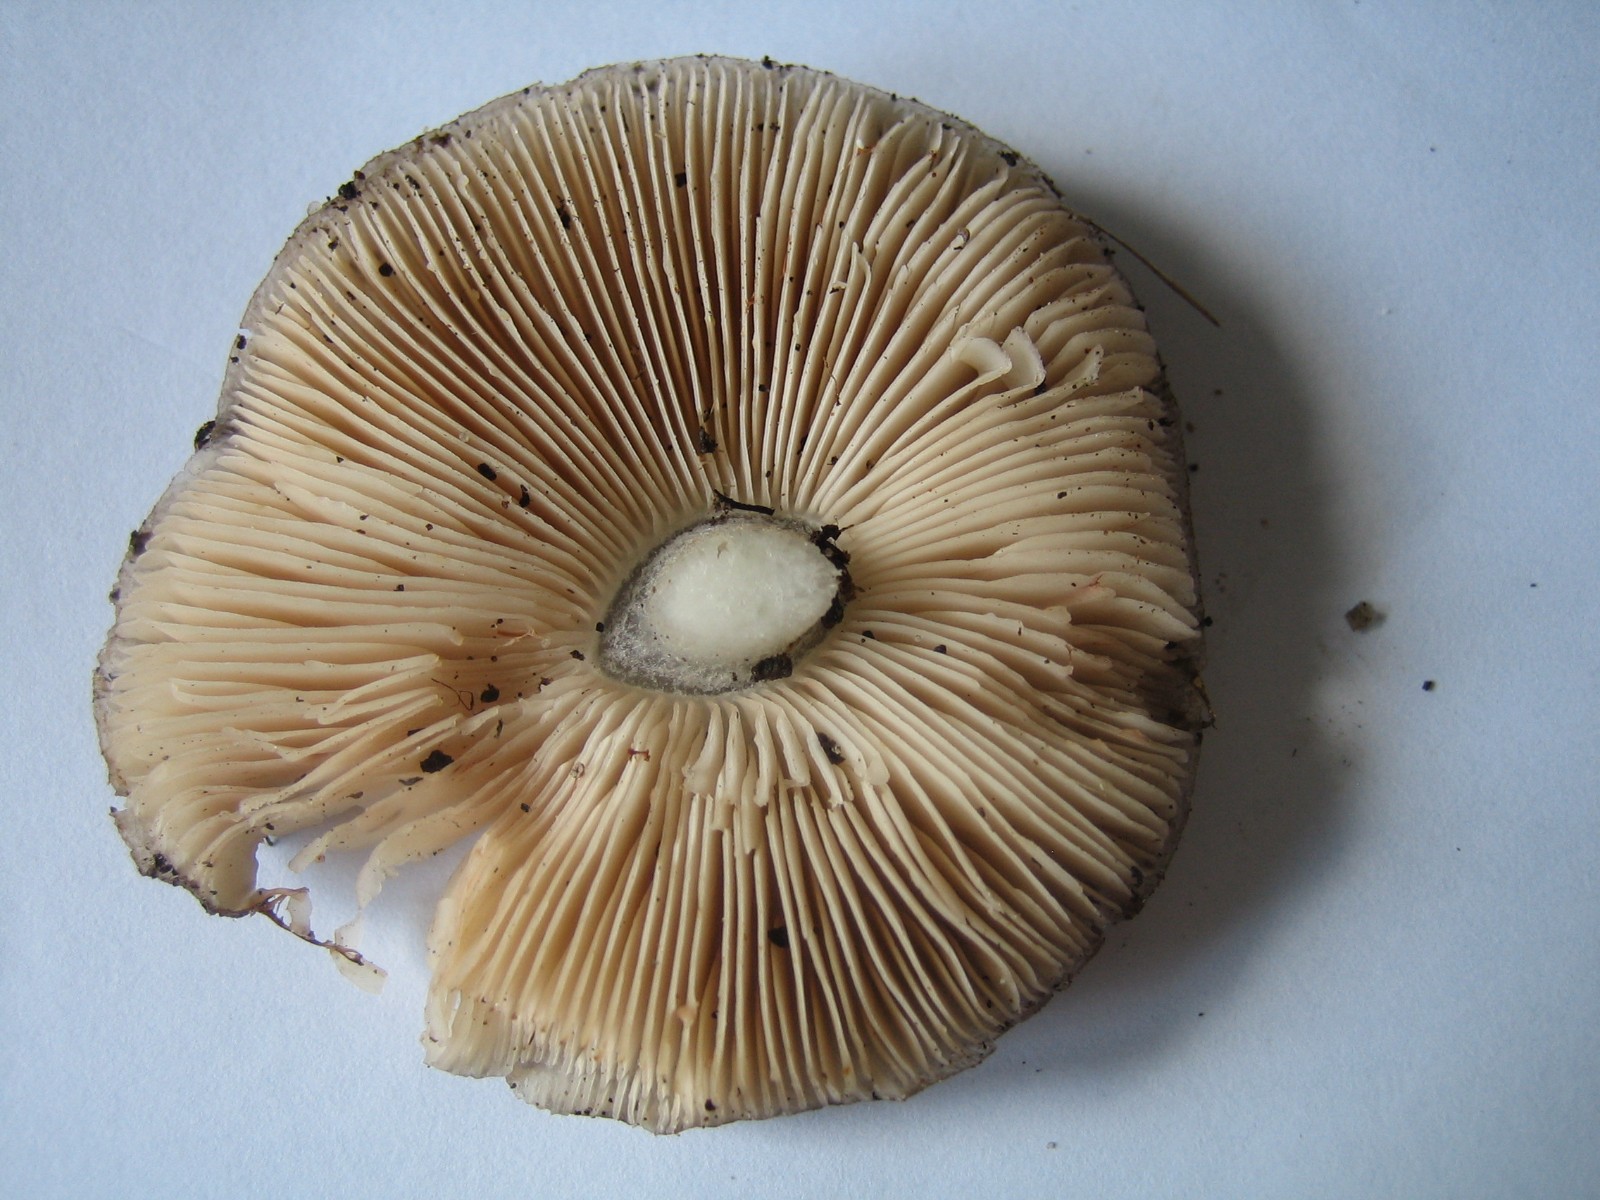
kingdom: Fungi
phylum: Basidiomycota
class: Agaricomycetes
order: Agaricales
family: Pluteaceae
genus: Pluteus
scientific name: Pluteus cervinus
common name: sodfarvet skærmhat
